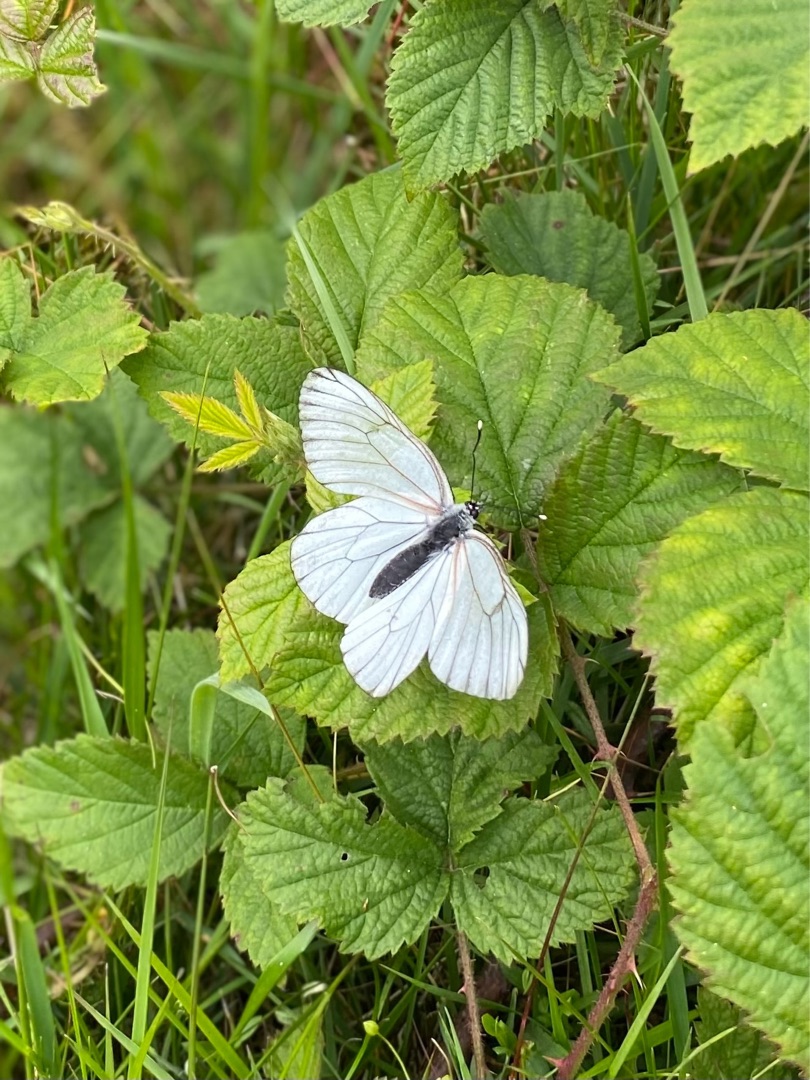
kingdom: Animalia
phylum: Arthropoda
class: Insecta
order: Lepidoptera
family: Pieridae
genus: Aporia
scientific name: Aporia crataegi
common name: Sortåret hvidvinge
